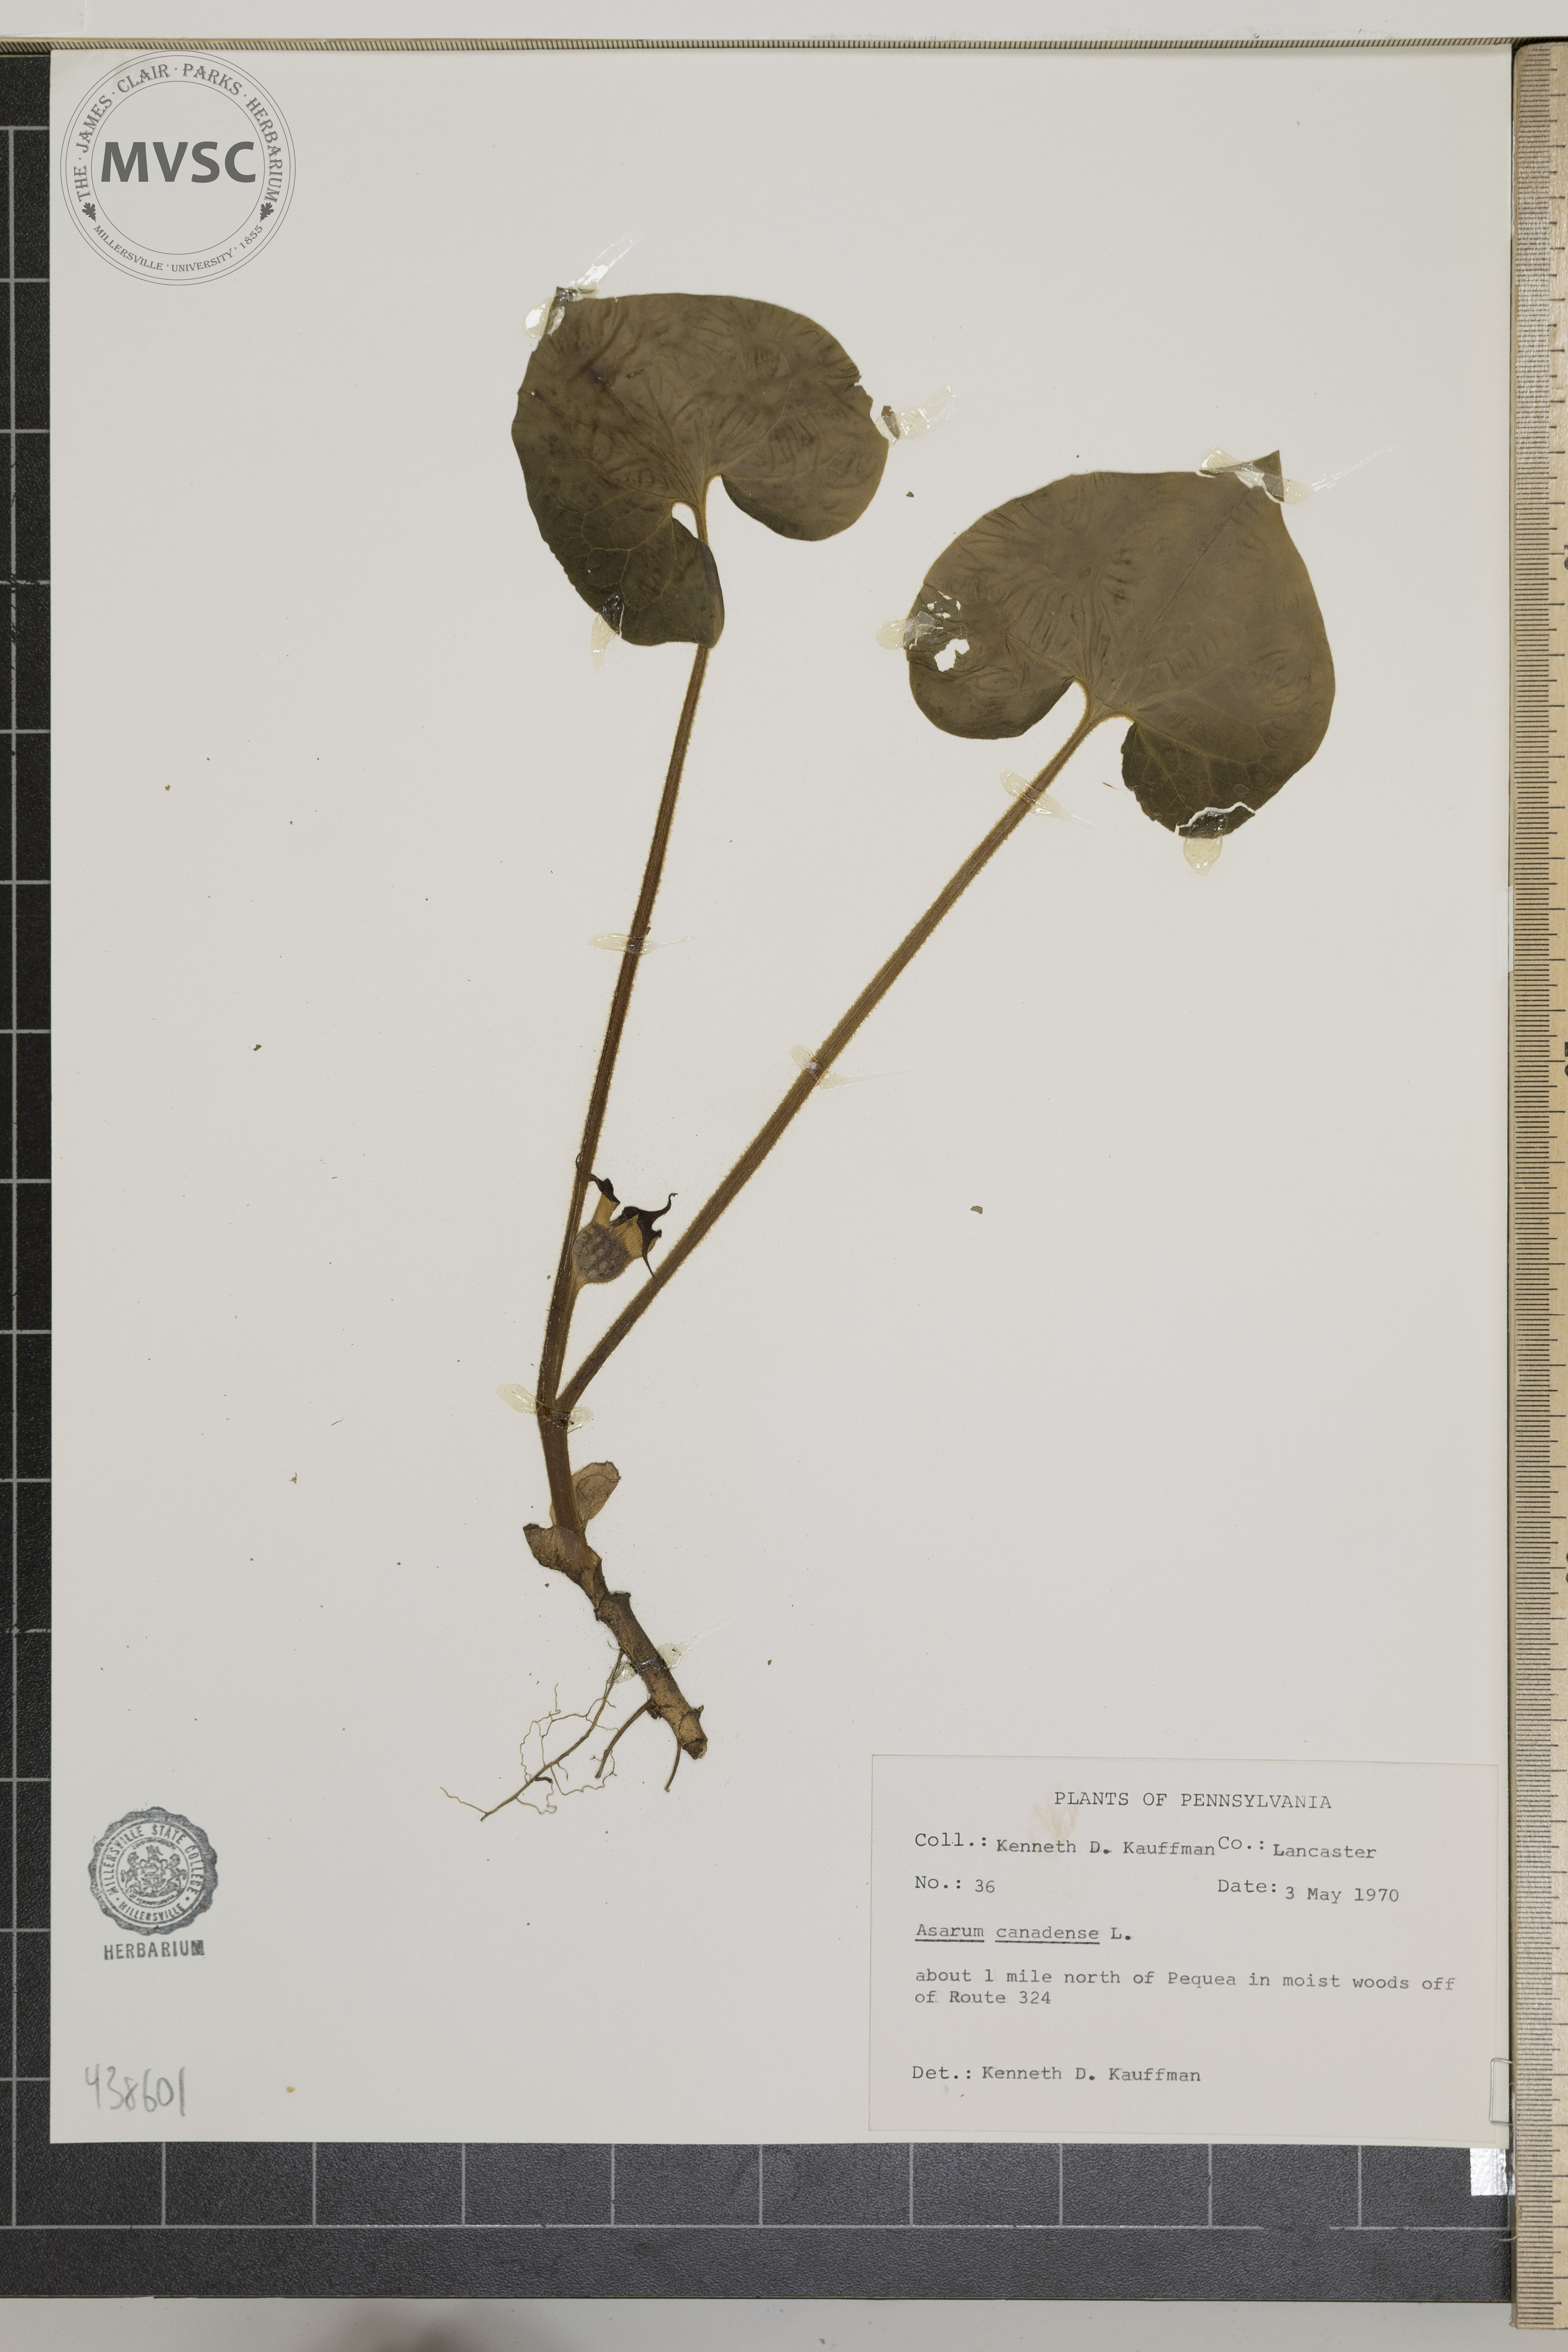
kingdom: Plantae
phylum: Tracheophyta
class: Magnoliopsida
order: Piperales
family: Aristolochiaceae
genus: Asarum
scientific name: Asarum canadense
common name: Wild ginger
